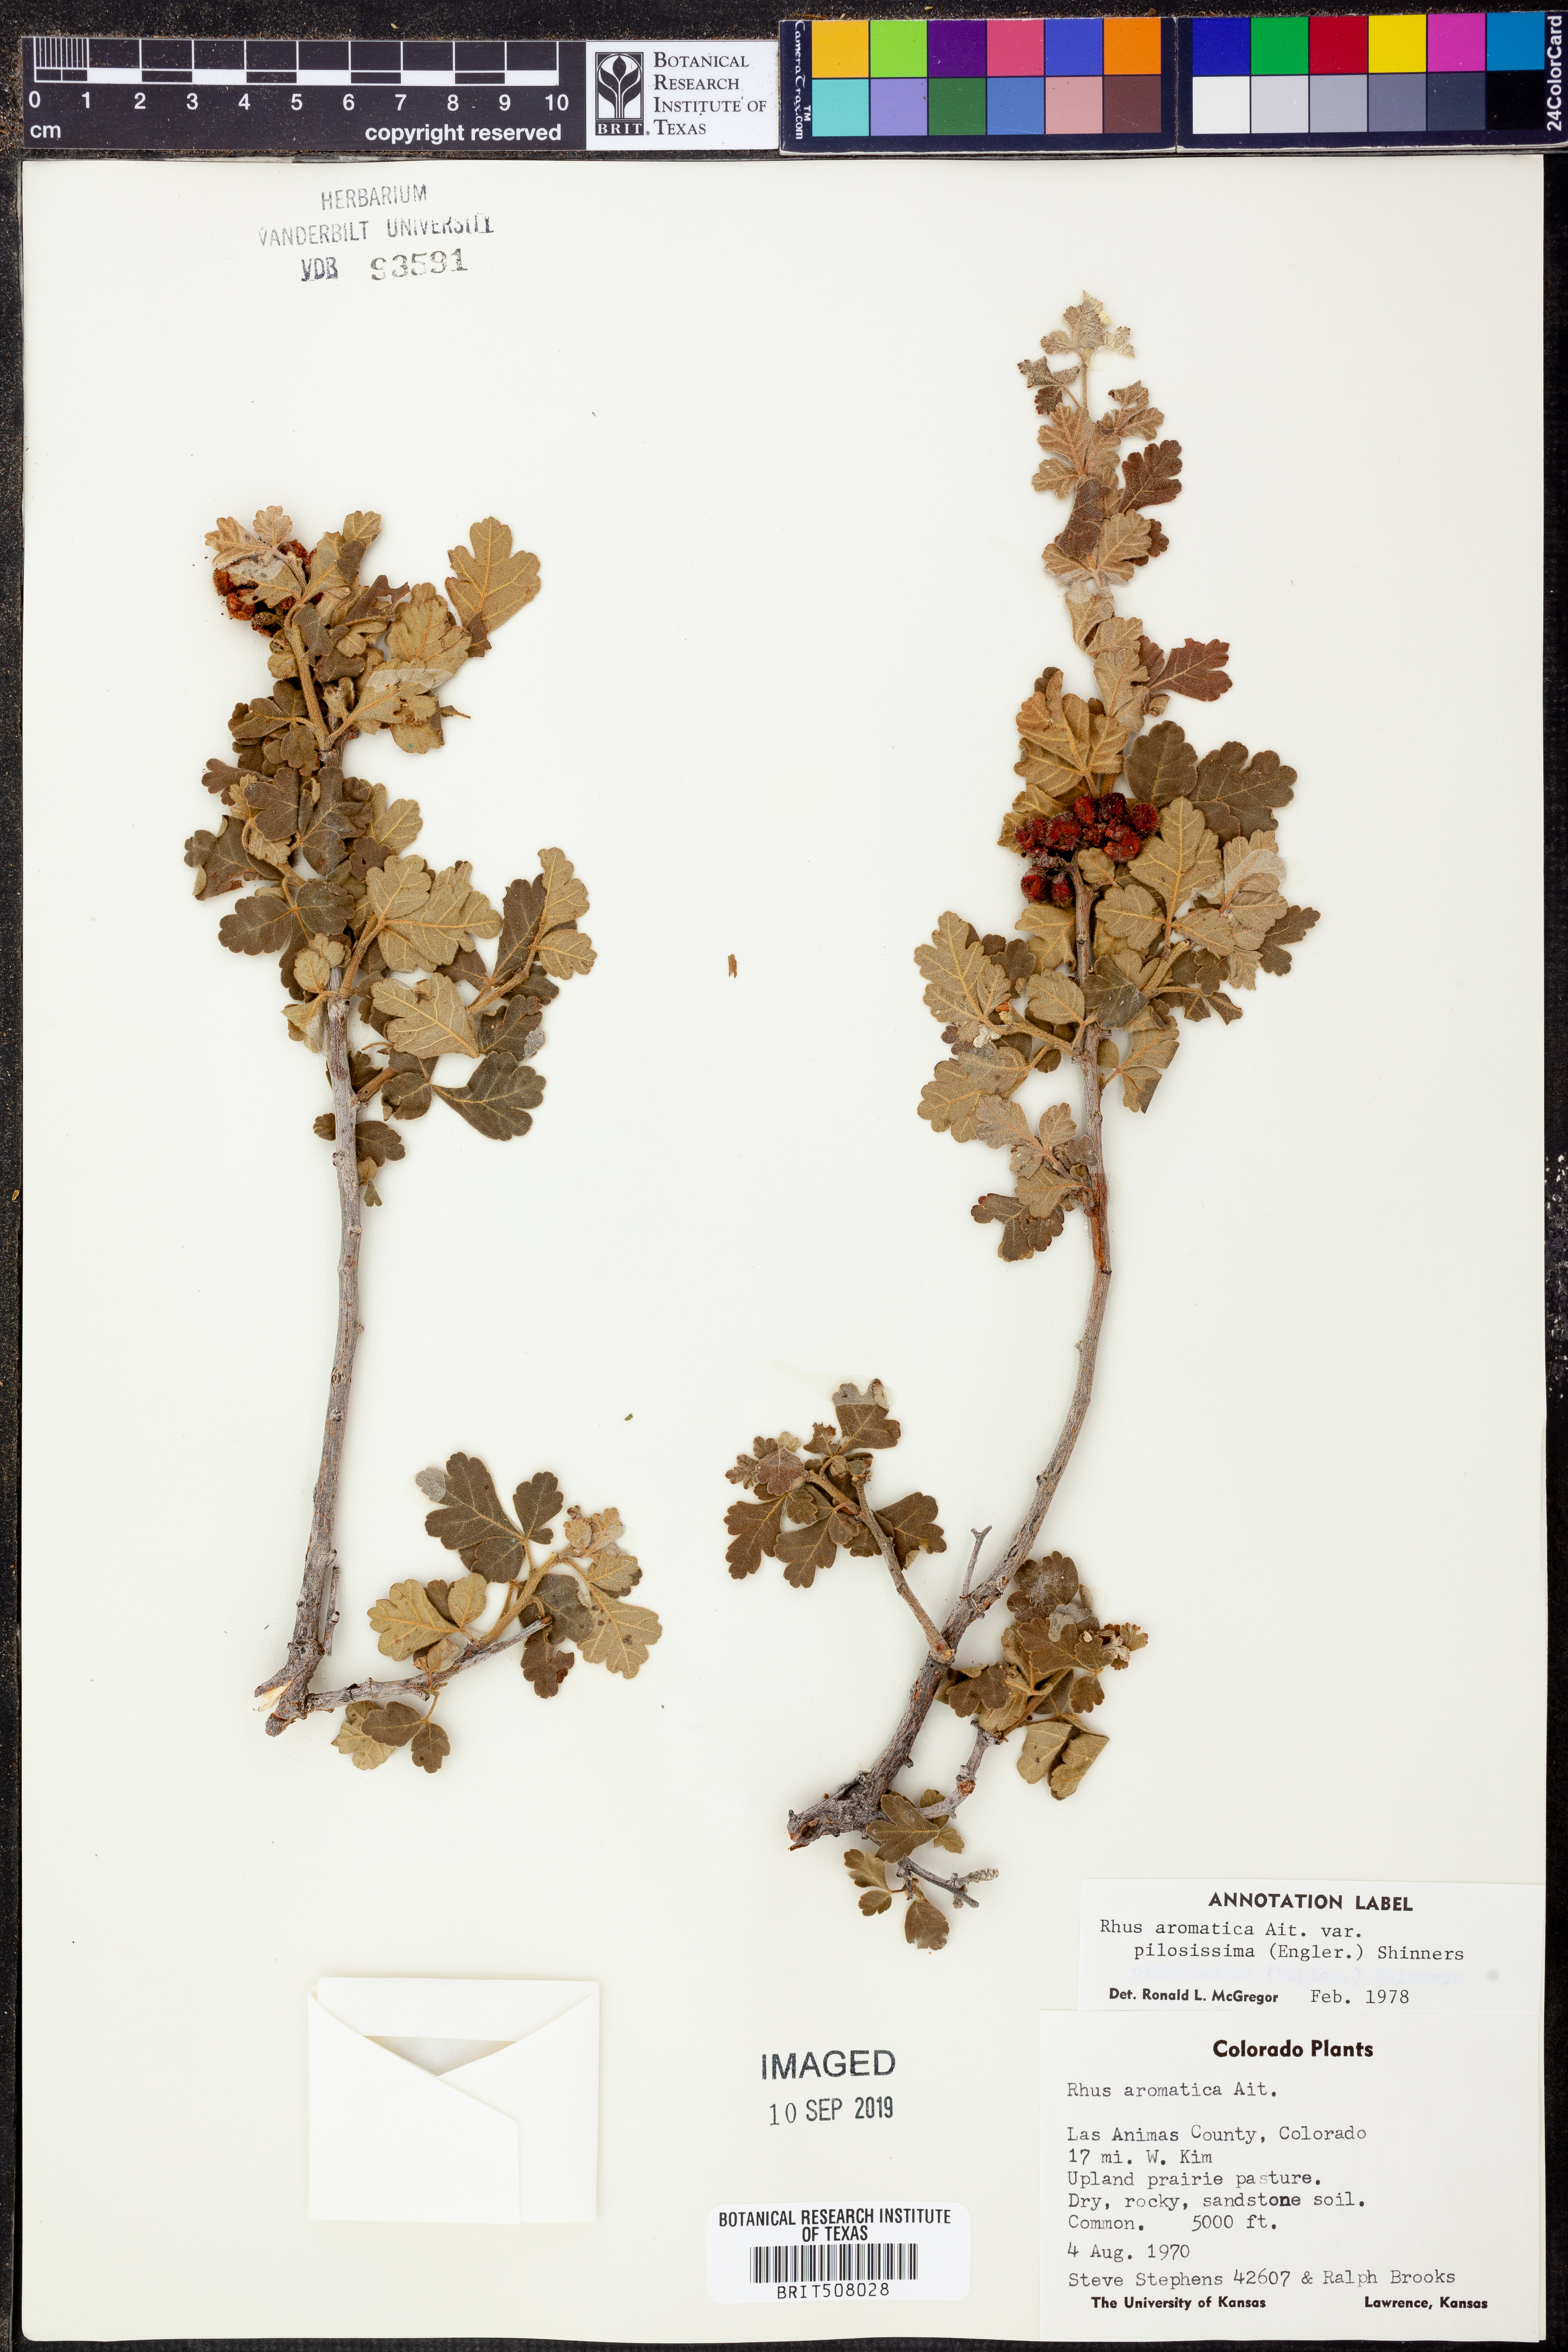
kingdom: Plantae
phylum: Tracheophyta
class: Magnoliopsida
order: Sapindales
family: Anacardiaceae
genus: Rhus
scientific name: Rhus trilobata
